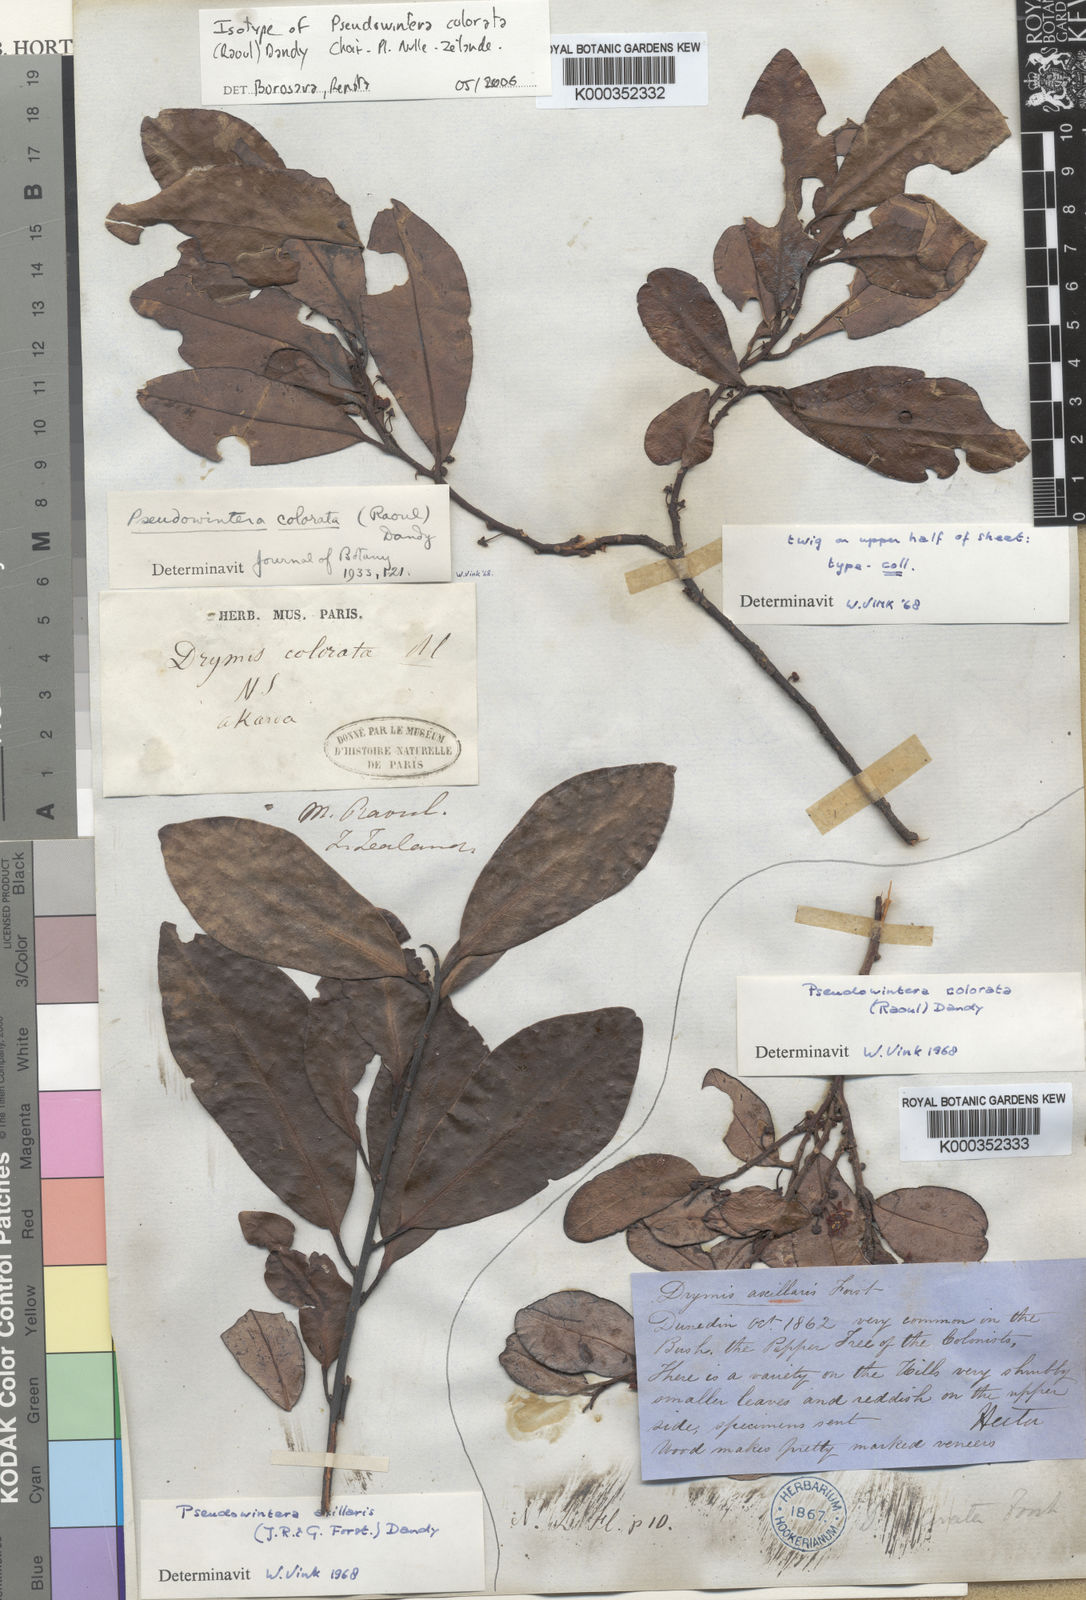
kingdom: Plantae
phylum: Tracheophyta
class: Magnoliopsida
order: Canellales
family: Winteraceae
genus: Pseudowintera
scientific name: Pseudowintera colorata
